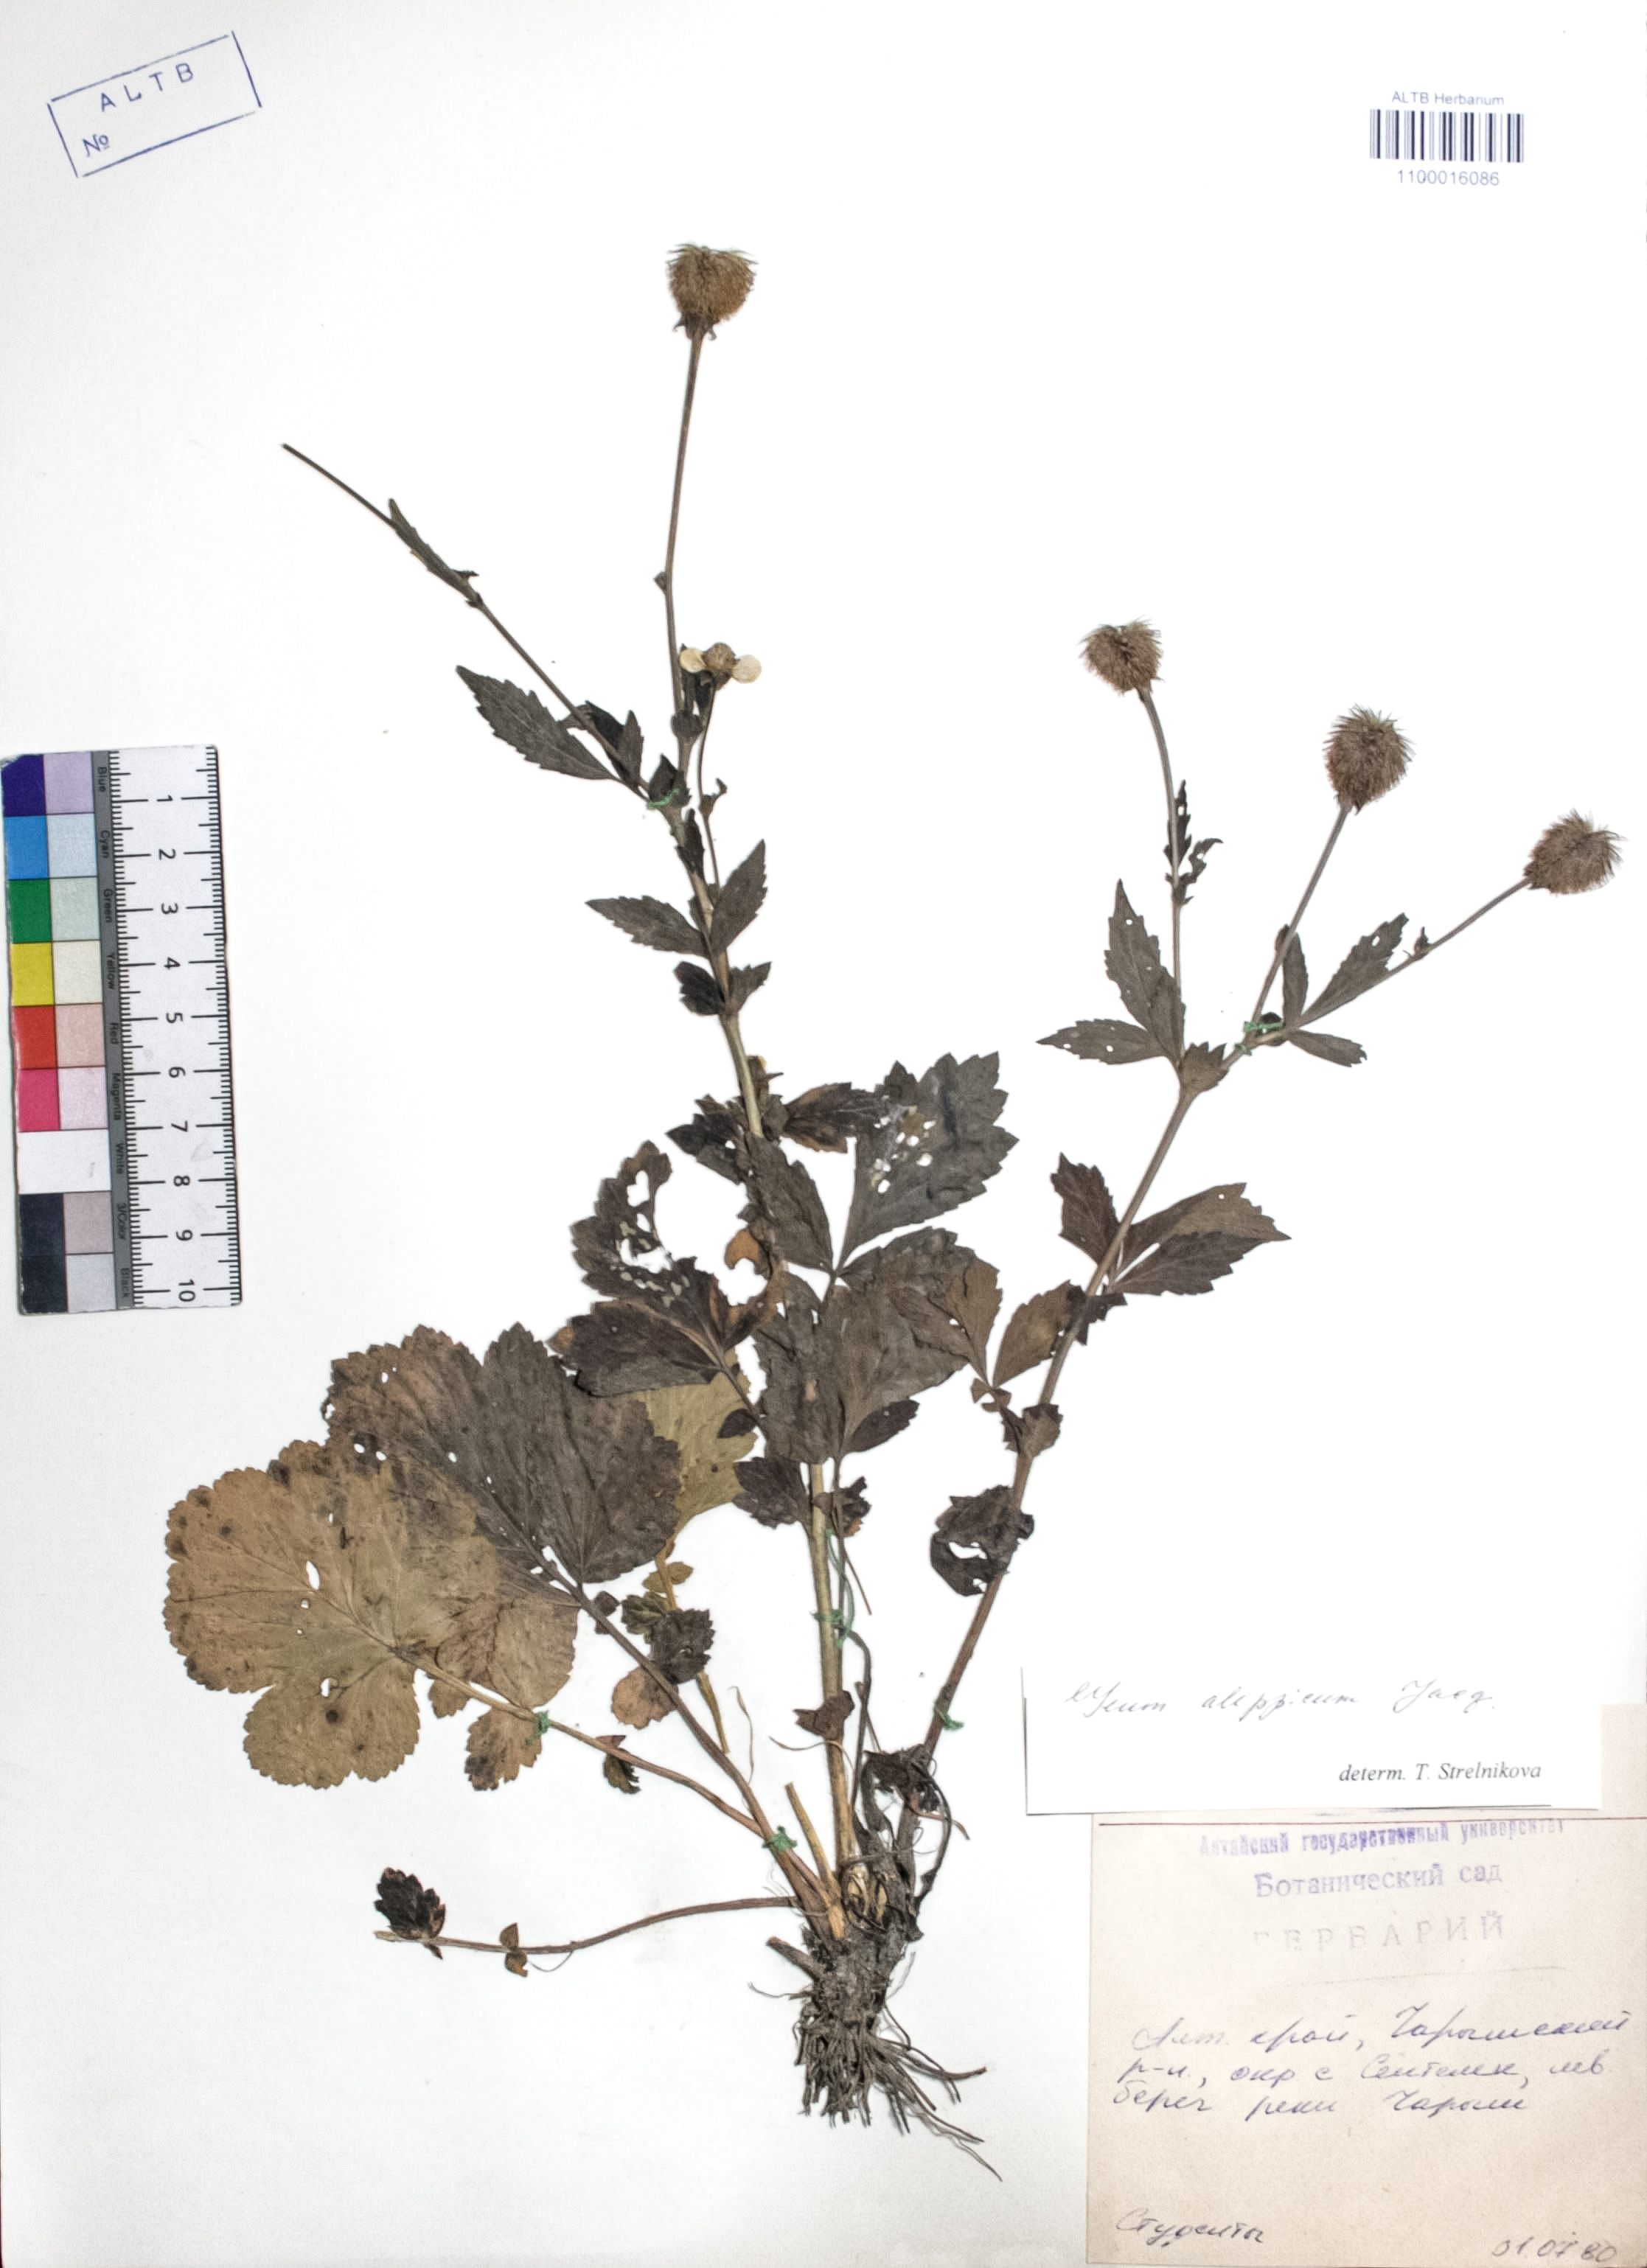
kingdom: Plantae
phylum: Tracheophyta
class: Magnoliopsida
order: Rosales
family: Rosaceae
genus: Geum
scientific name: Geum aleppicum
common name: Yellow avens
